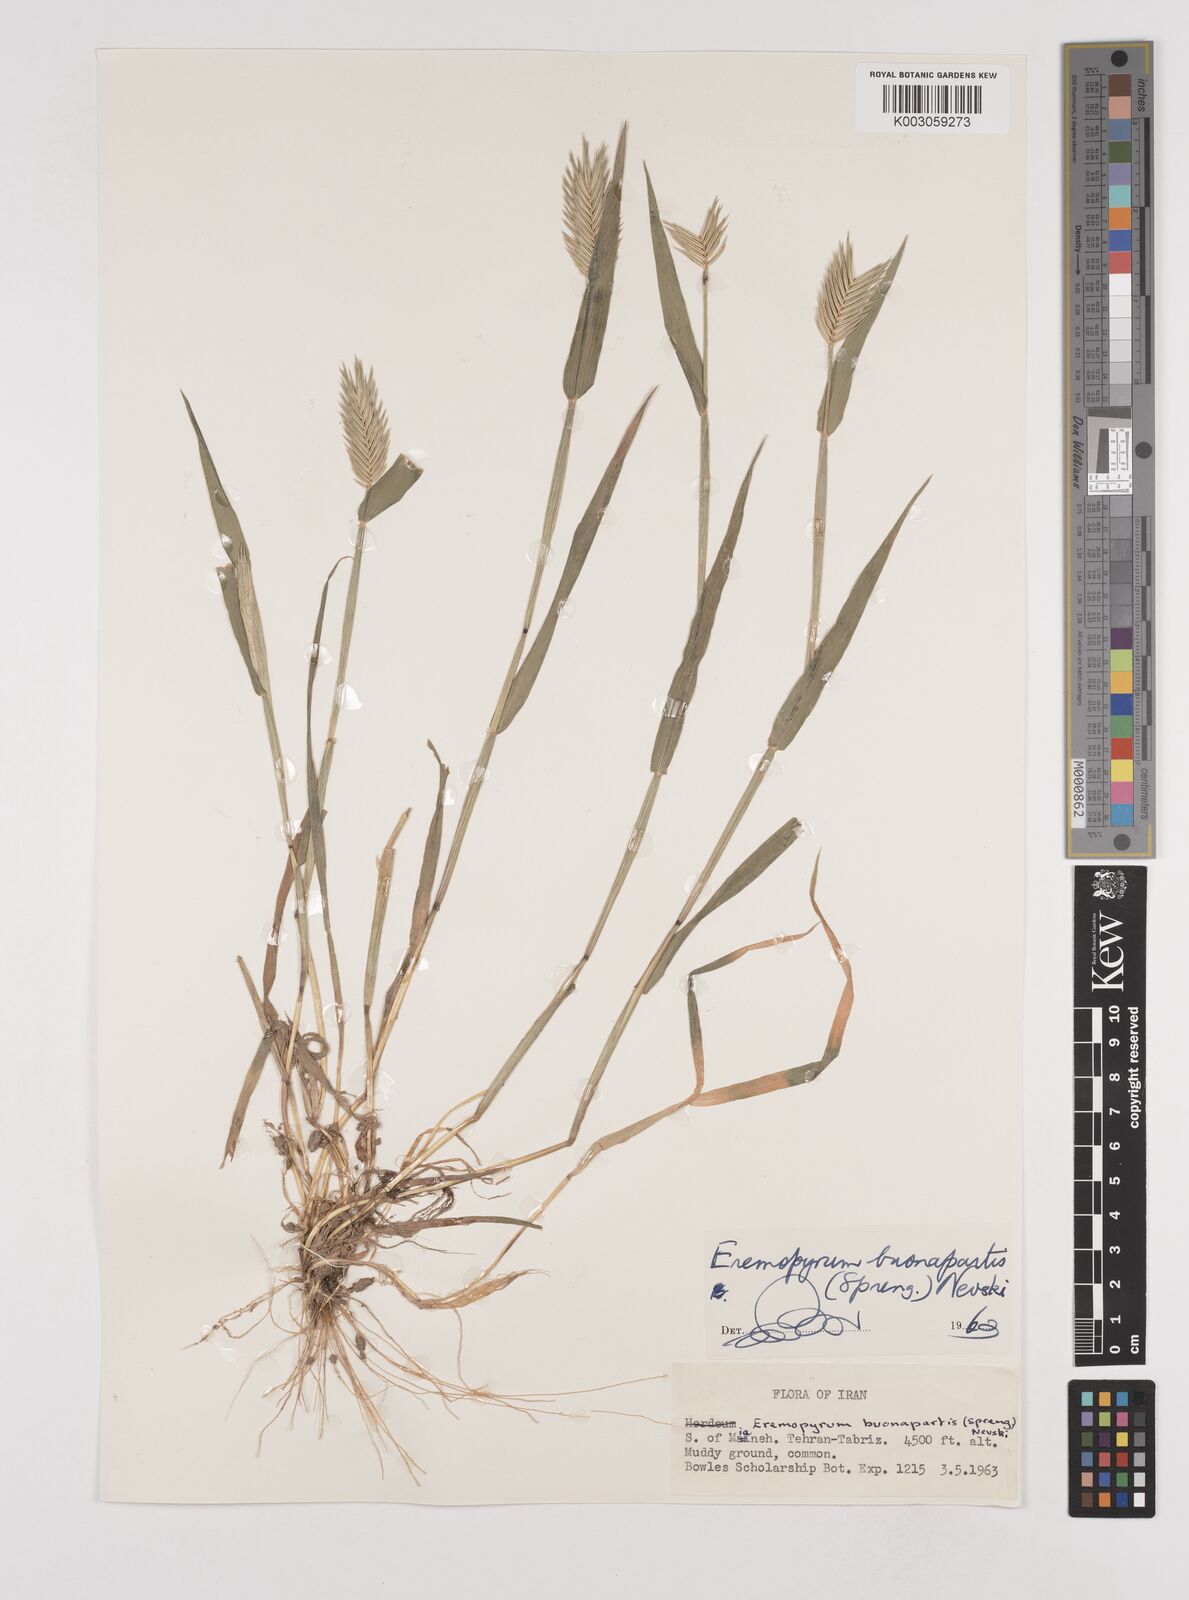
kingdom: Plantae
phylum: Tracheophyta
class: Liliopsida
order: Poales
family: Poaceae
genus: Eremopyrum
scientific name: Eremopyrum bonaepartis
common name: Tapertip false wheatgrass
